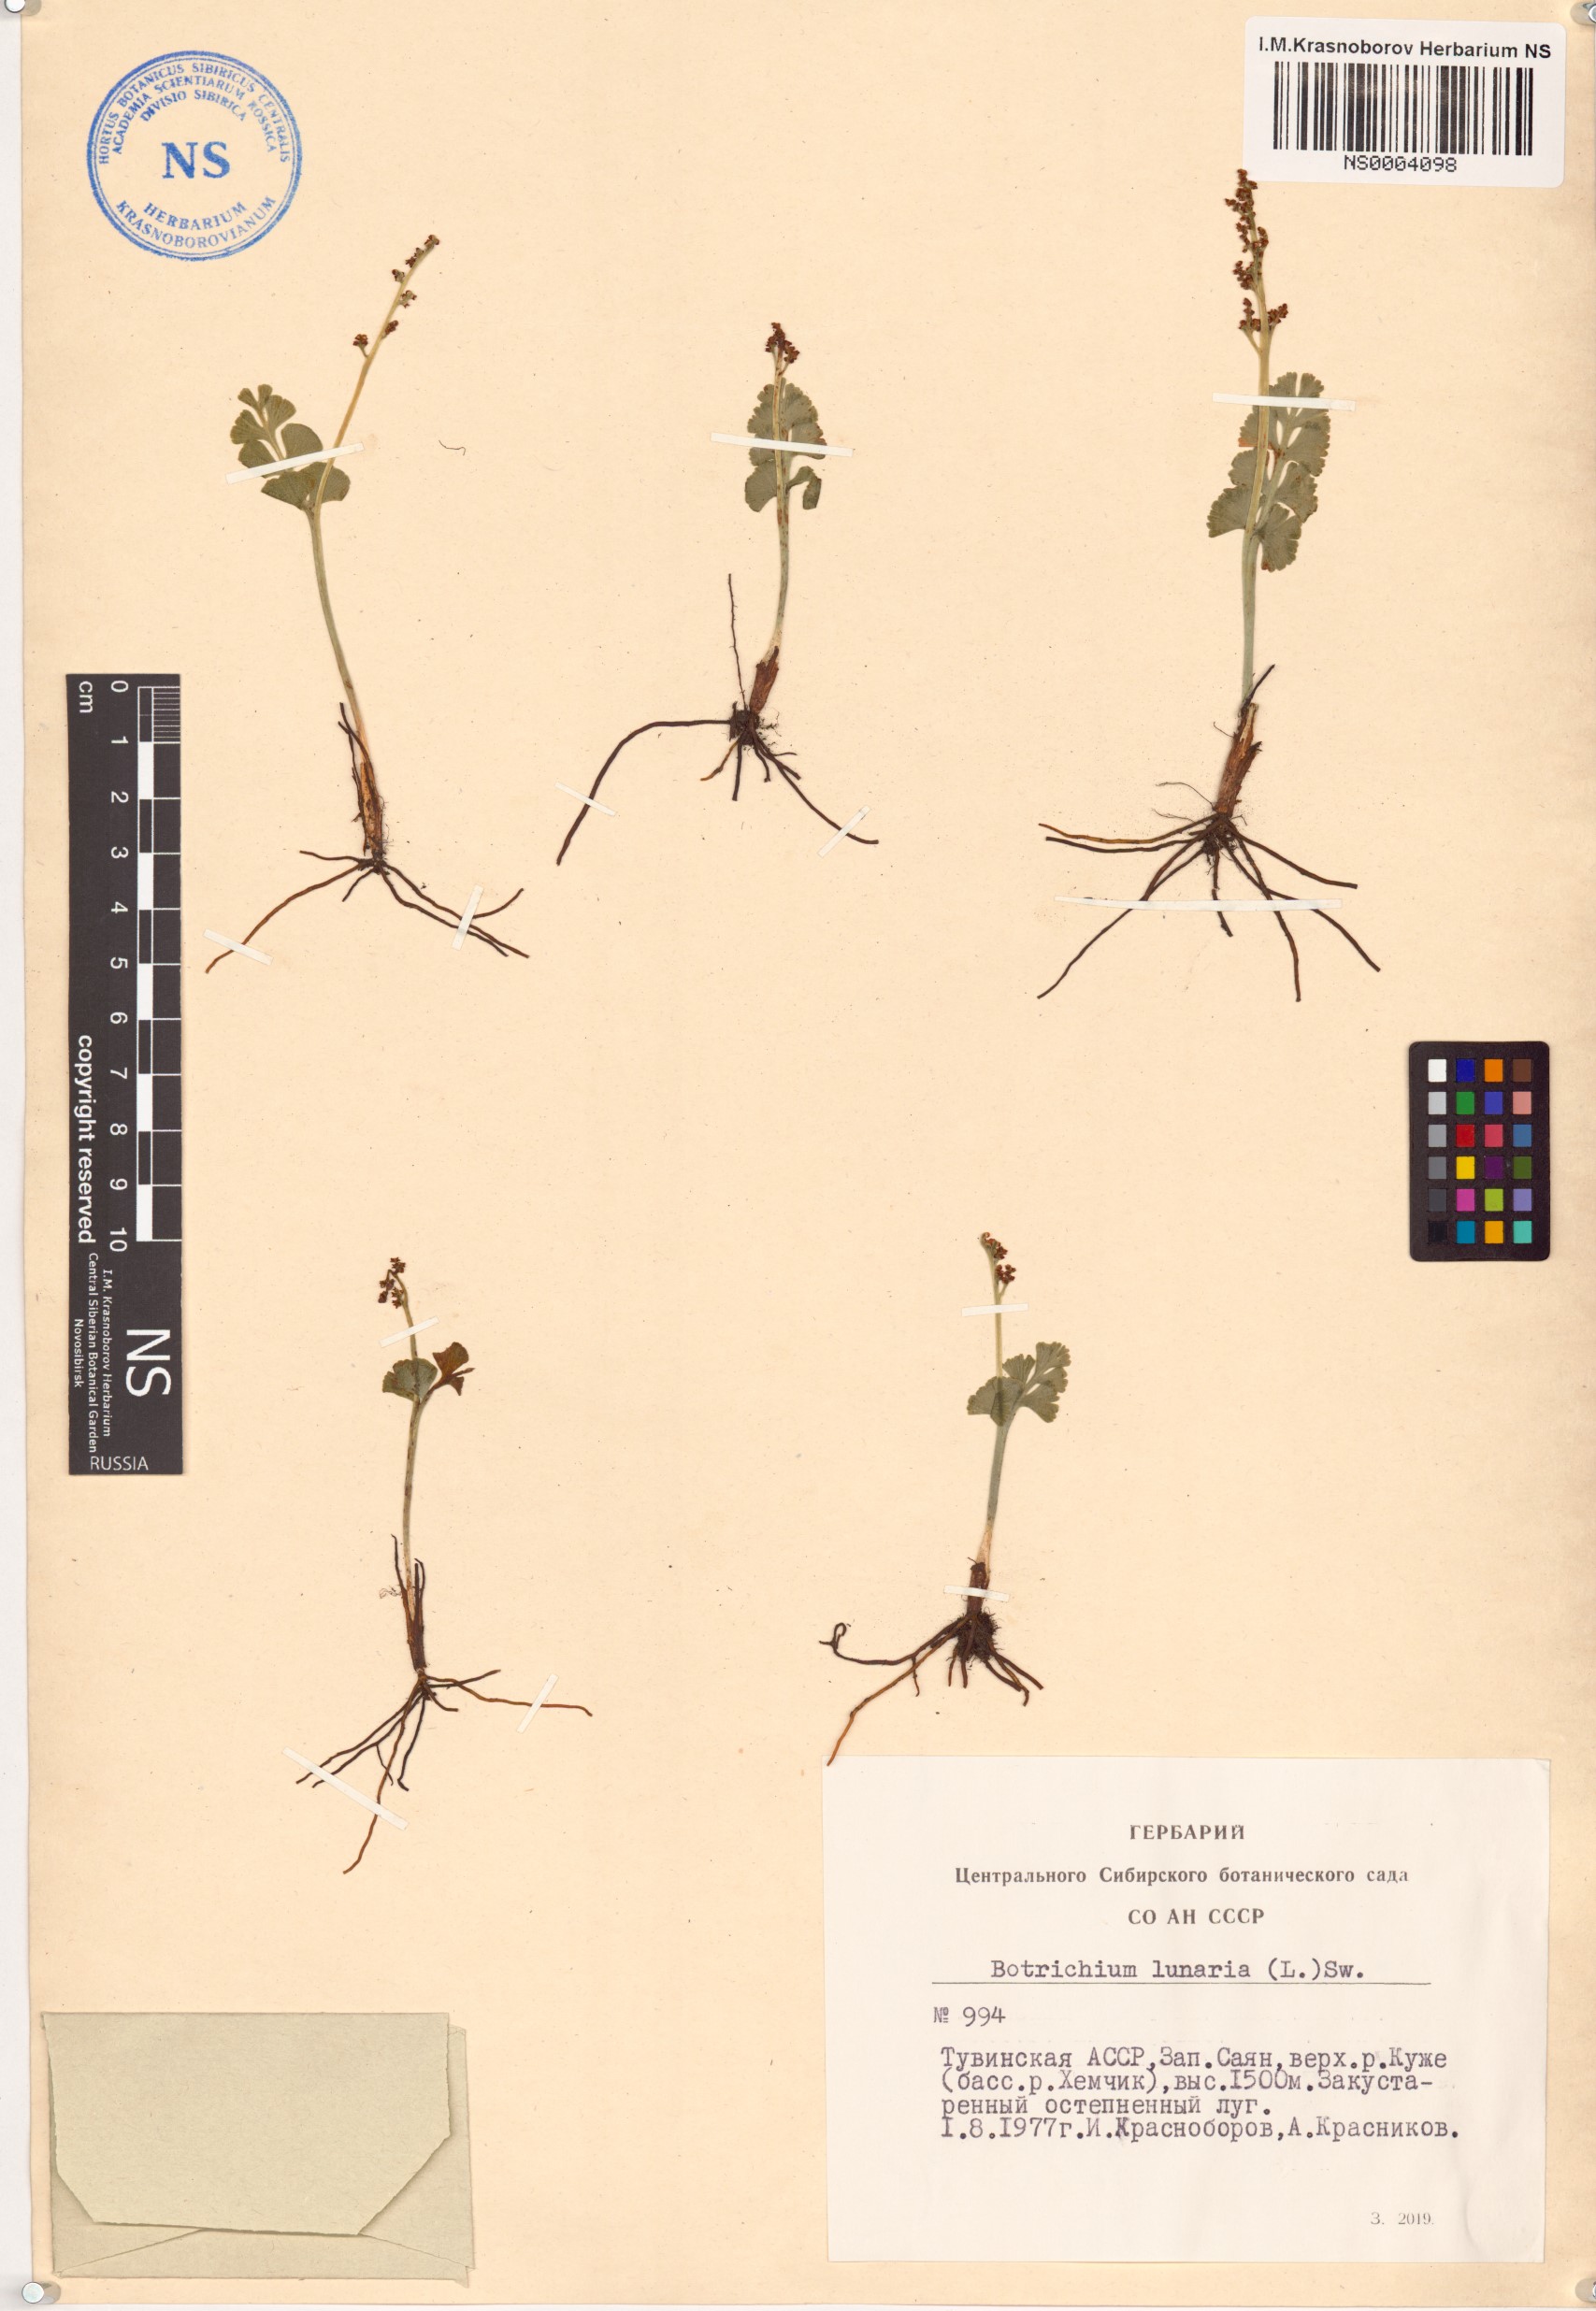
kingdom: Plantae
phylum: Tracheophyta
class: Polypodiopsida
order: Ophioglossales
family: Ophioglossaceae
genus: Botrychium
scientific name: Botrychium lunaria
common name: Moonwort
